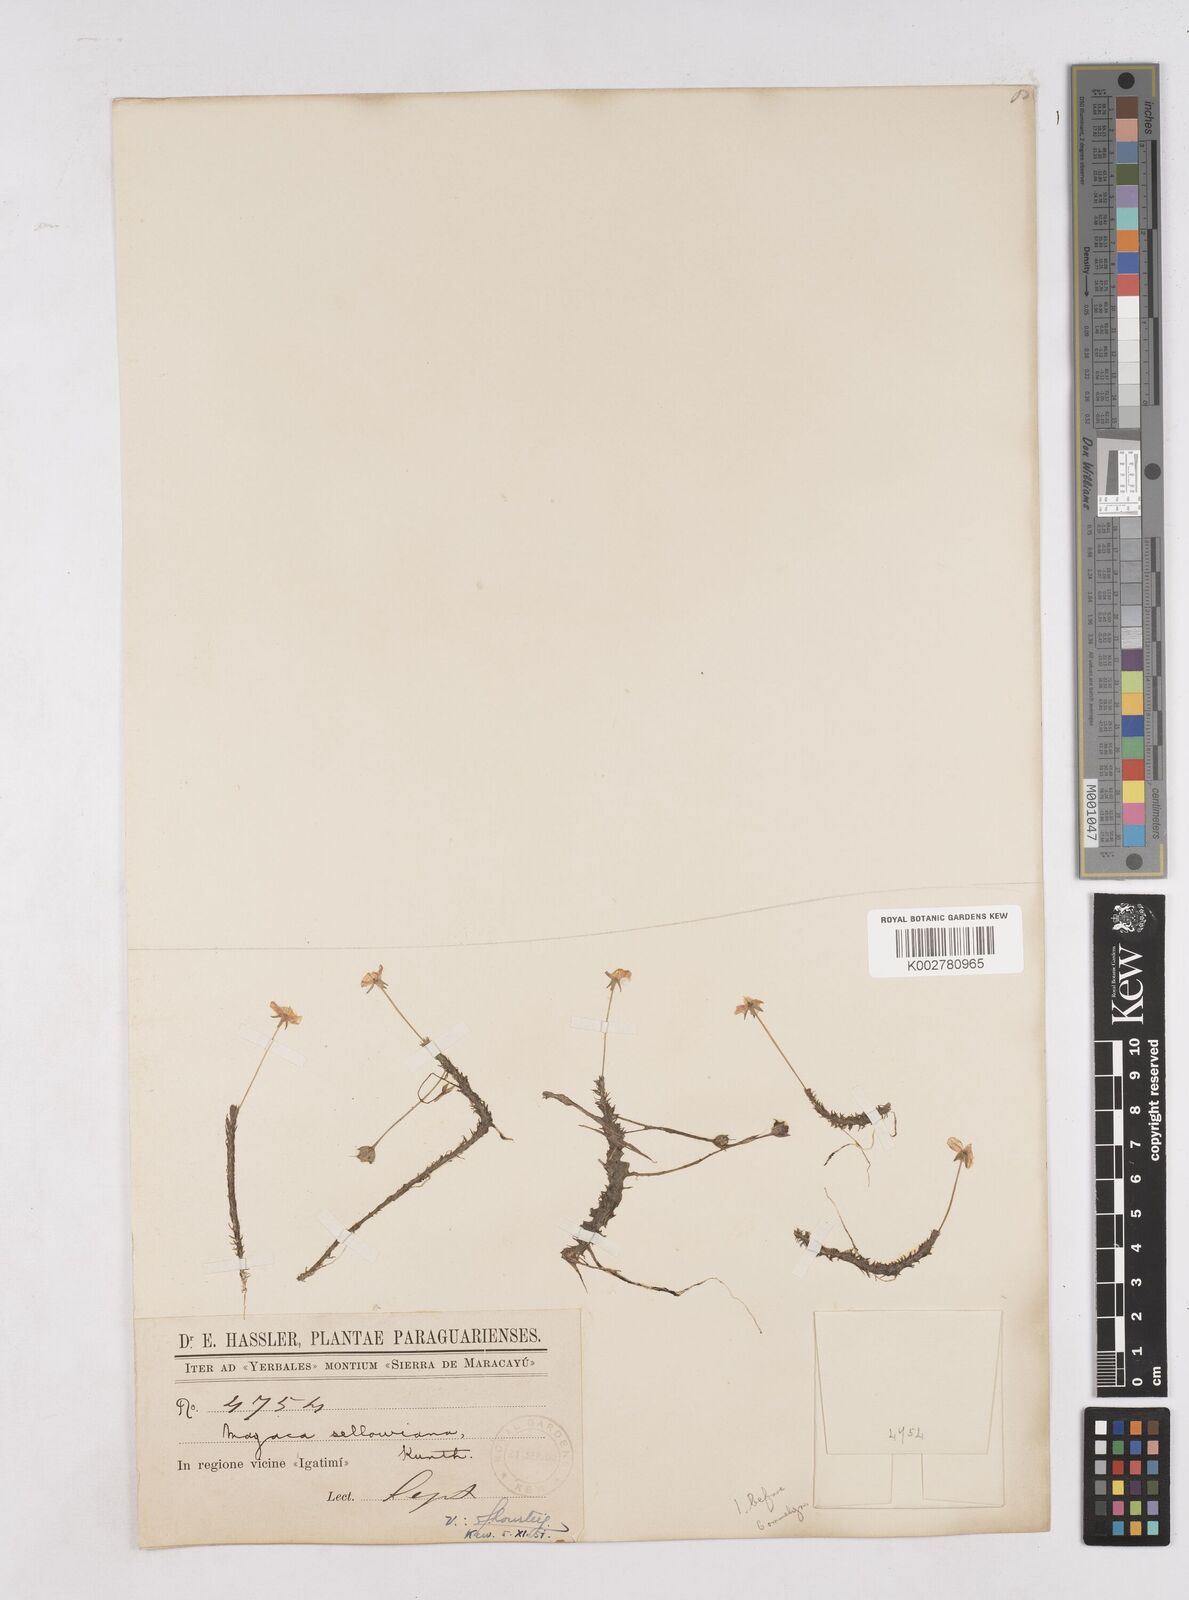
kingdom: Plantae
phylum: Tracheophyta
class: Liliopsida
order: Poales
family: Mayacaceae
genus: Mayaca
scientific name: Mayaca sellowiana
